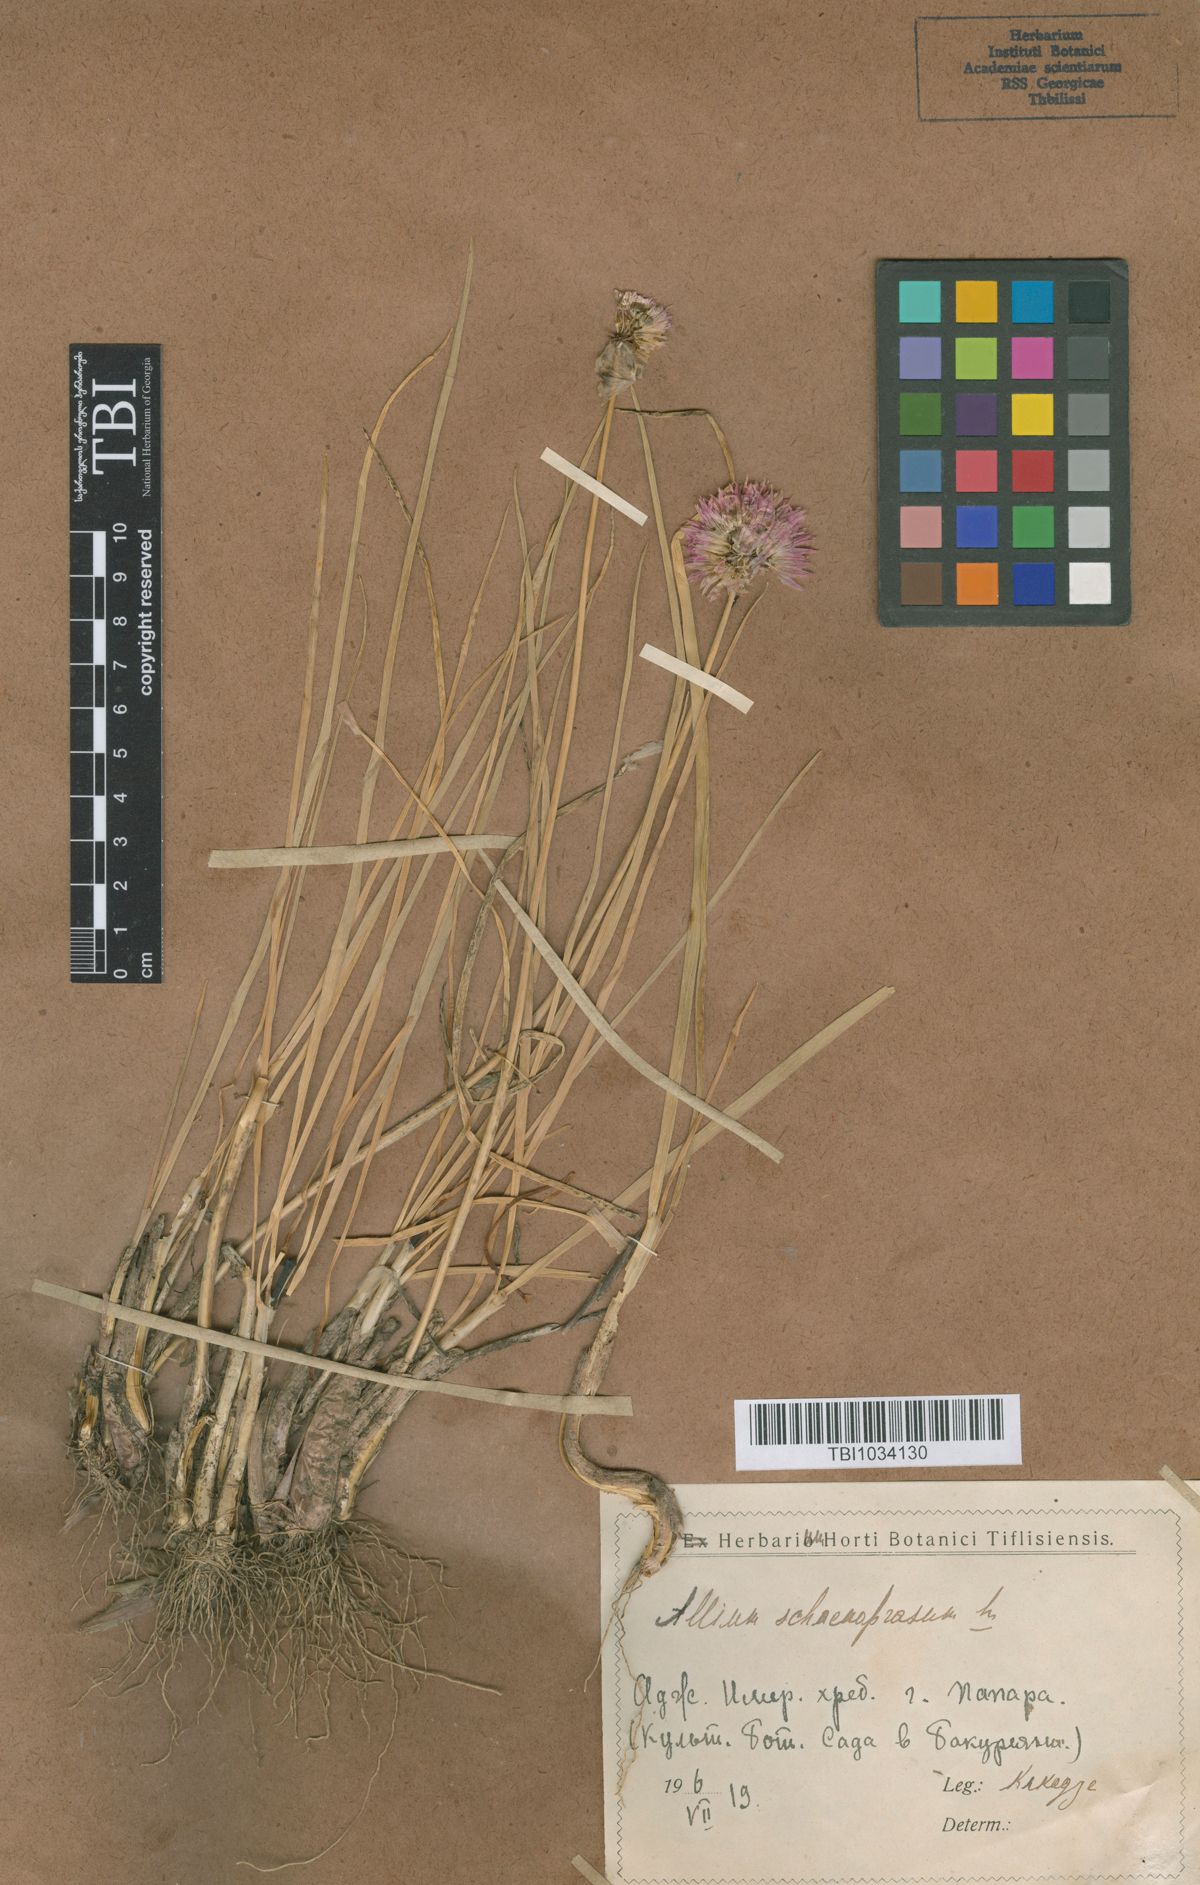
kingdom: Plantae
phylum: Tracheophyta
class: Liliopsida
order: Asparagales
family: Amaryllidaceae
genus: Allium
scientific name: Allium schoenoprasum
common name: Chives
